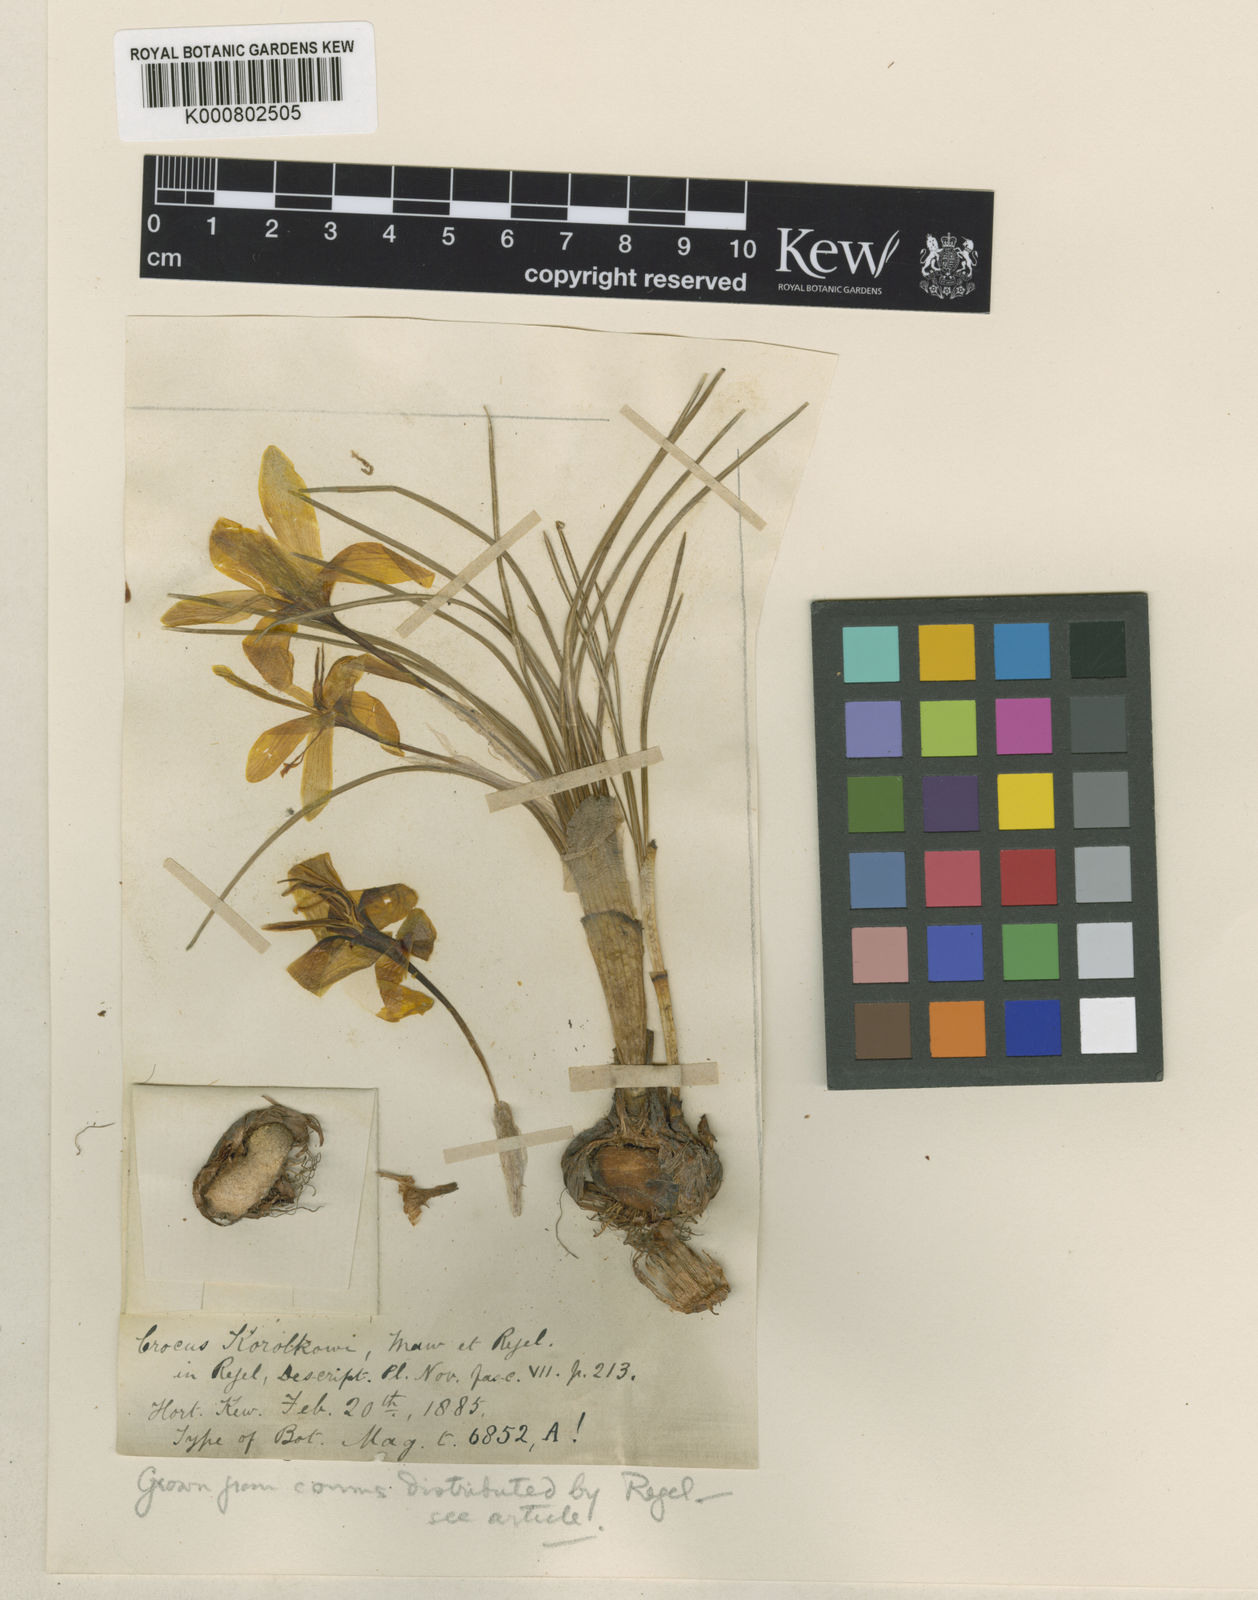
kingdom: Plantae
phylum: Tracheophyta
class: Liliopsida
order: Asparagales
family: Iridaceae
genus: Crocus
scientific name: Crocus korolkowii
